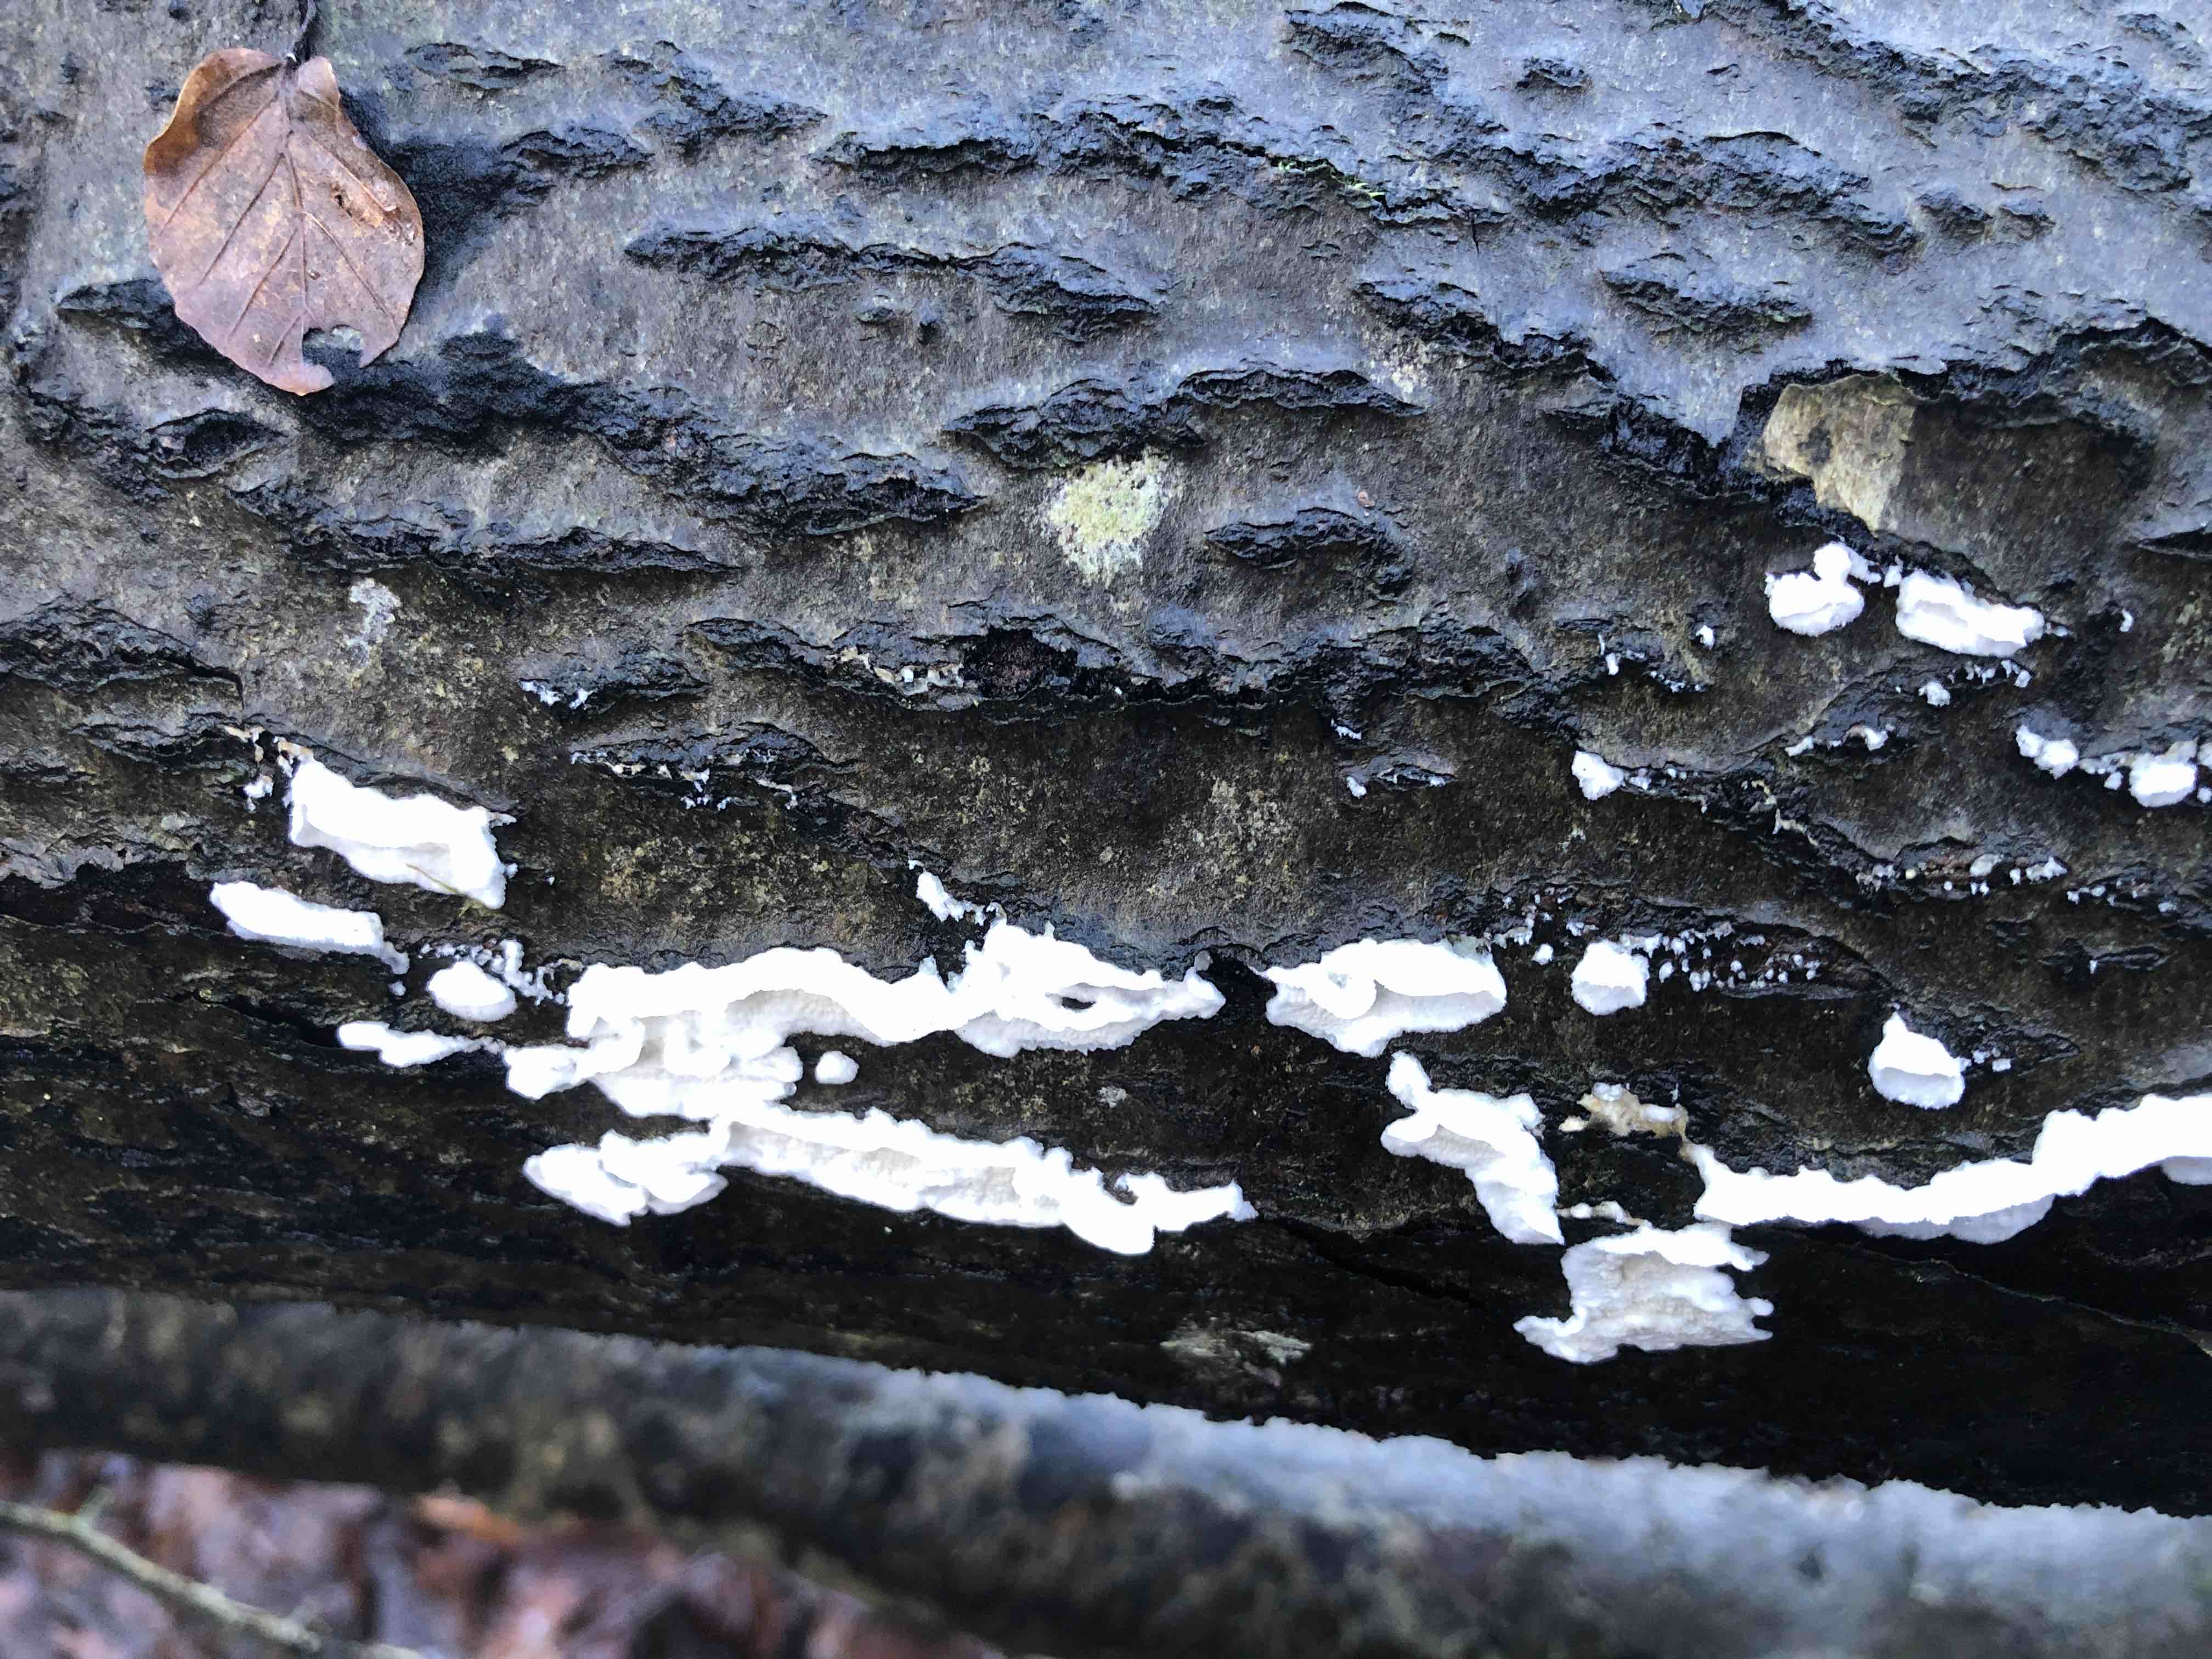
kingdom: Fungi
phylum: Basidiomycota
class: Agaricomycetes
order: Polyporales
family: Irpicaceae
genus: Byssomerulius
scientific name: Byssomerulius corium
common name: læder-åresvamp
